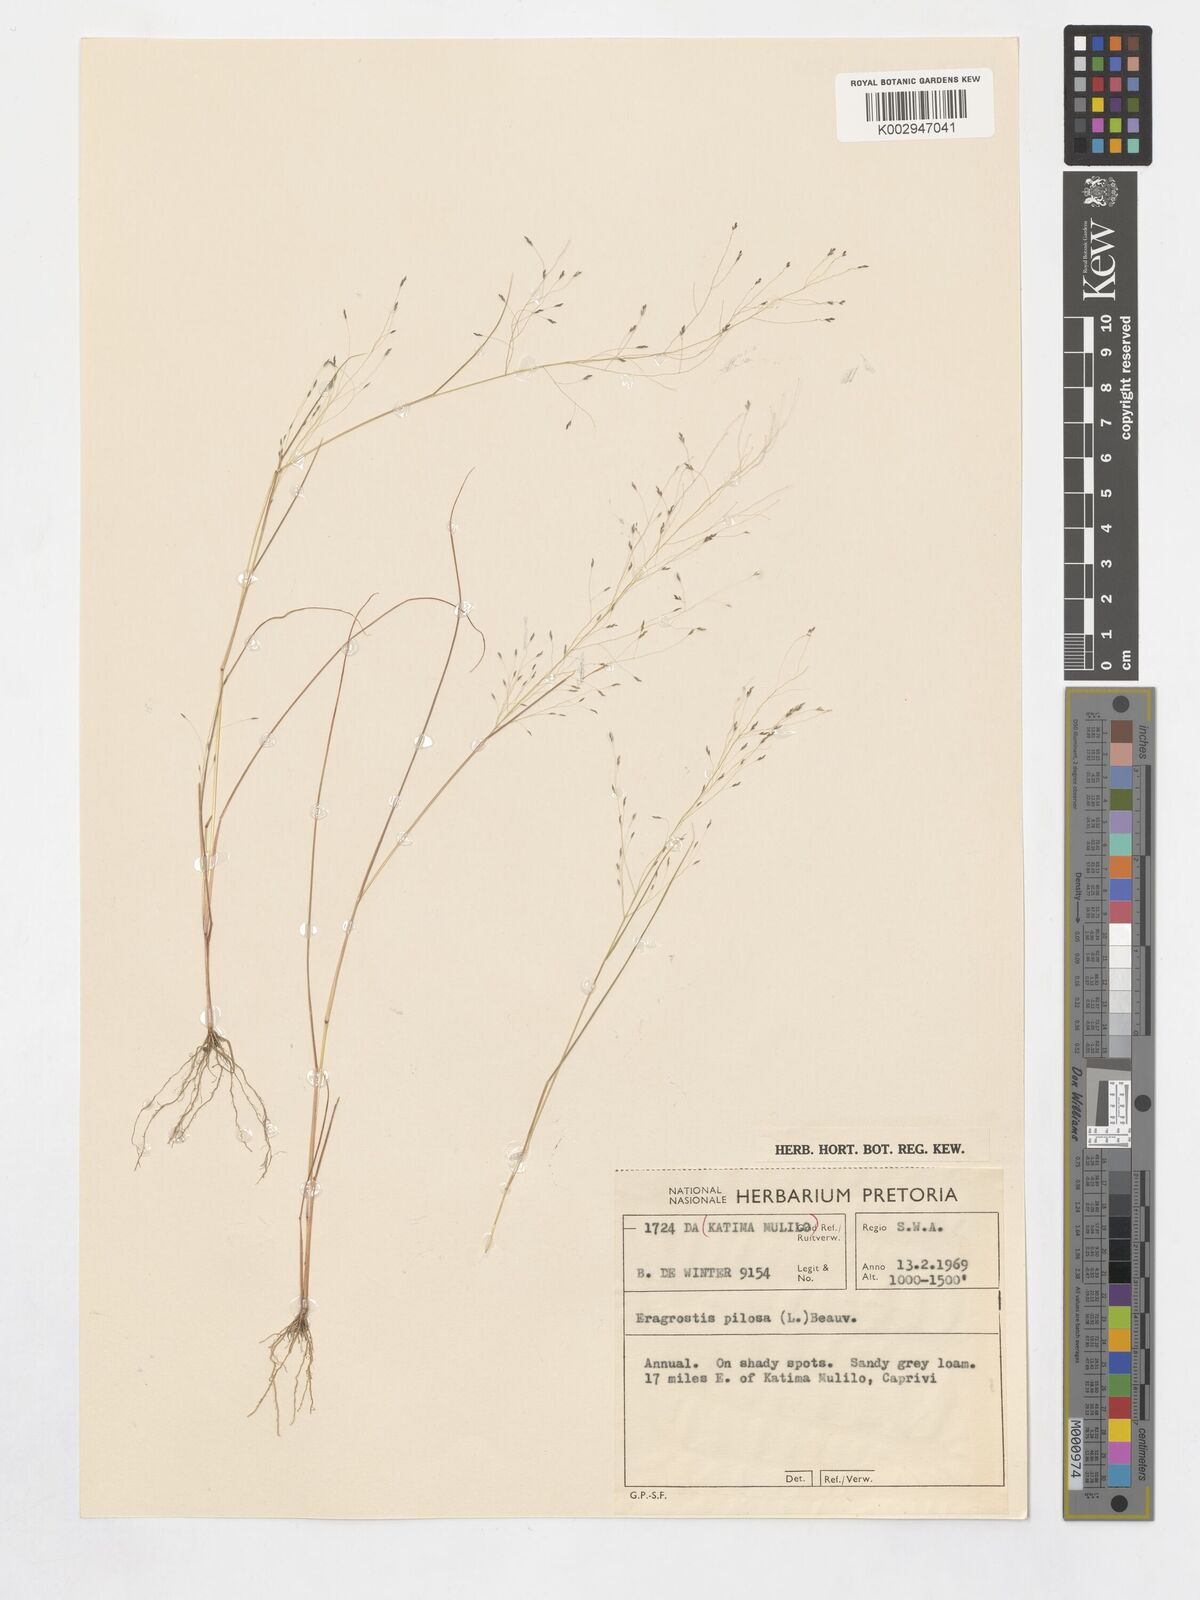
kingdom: Plantae
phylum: Tracheophyta
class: Liliopsida
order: Poales
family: Poaceae
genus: Eragrostis
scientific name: Eragrostis pilosa
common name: Indian lovegrass
